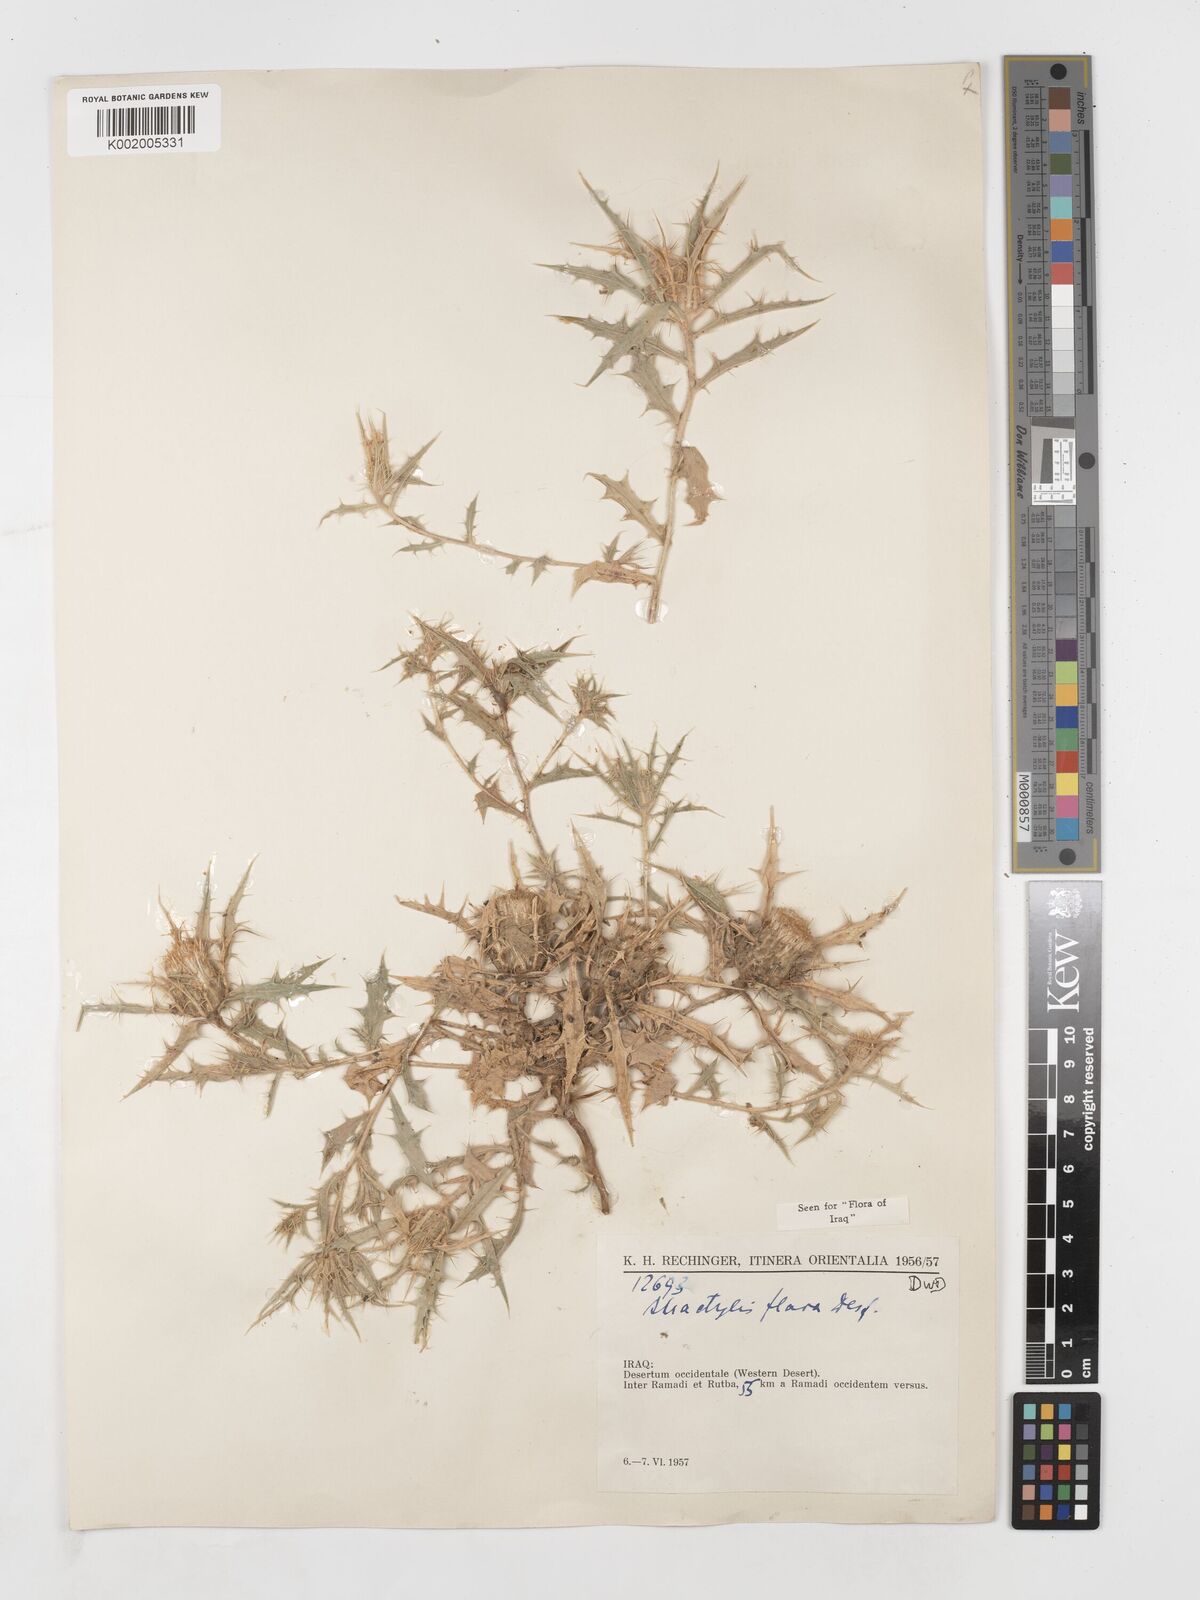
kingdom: Plantae
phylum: Tracheophyta
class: Magnoliopsida
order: Asterales
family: Asteraceae
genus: Atractylis
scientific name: Atractylis carduus
